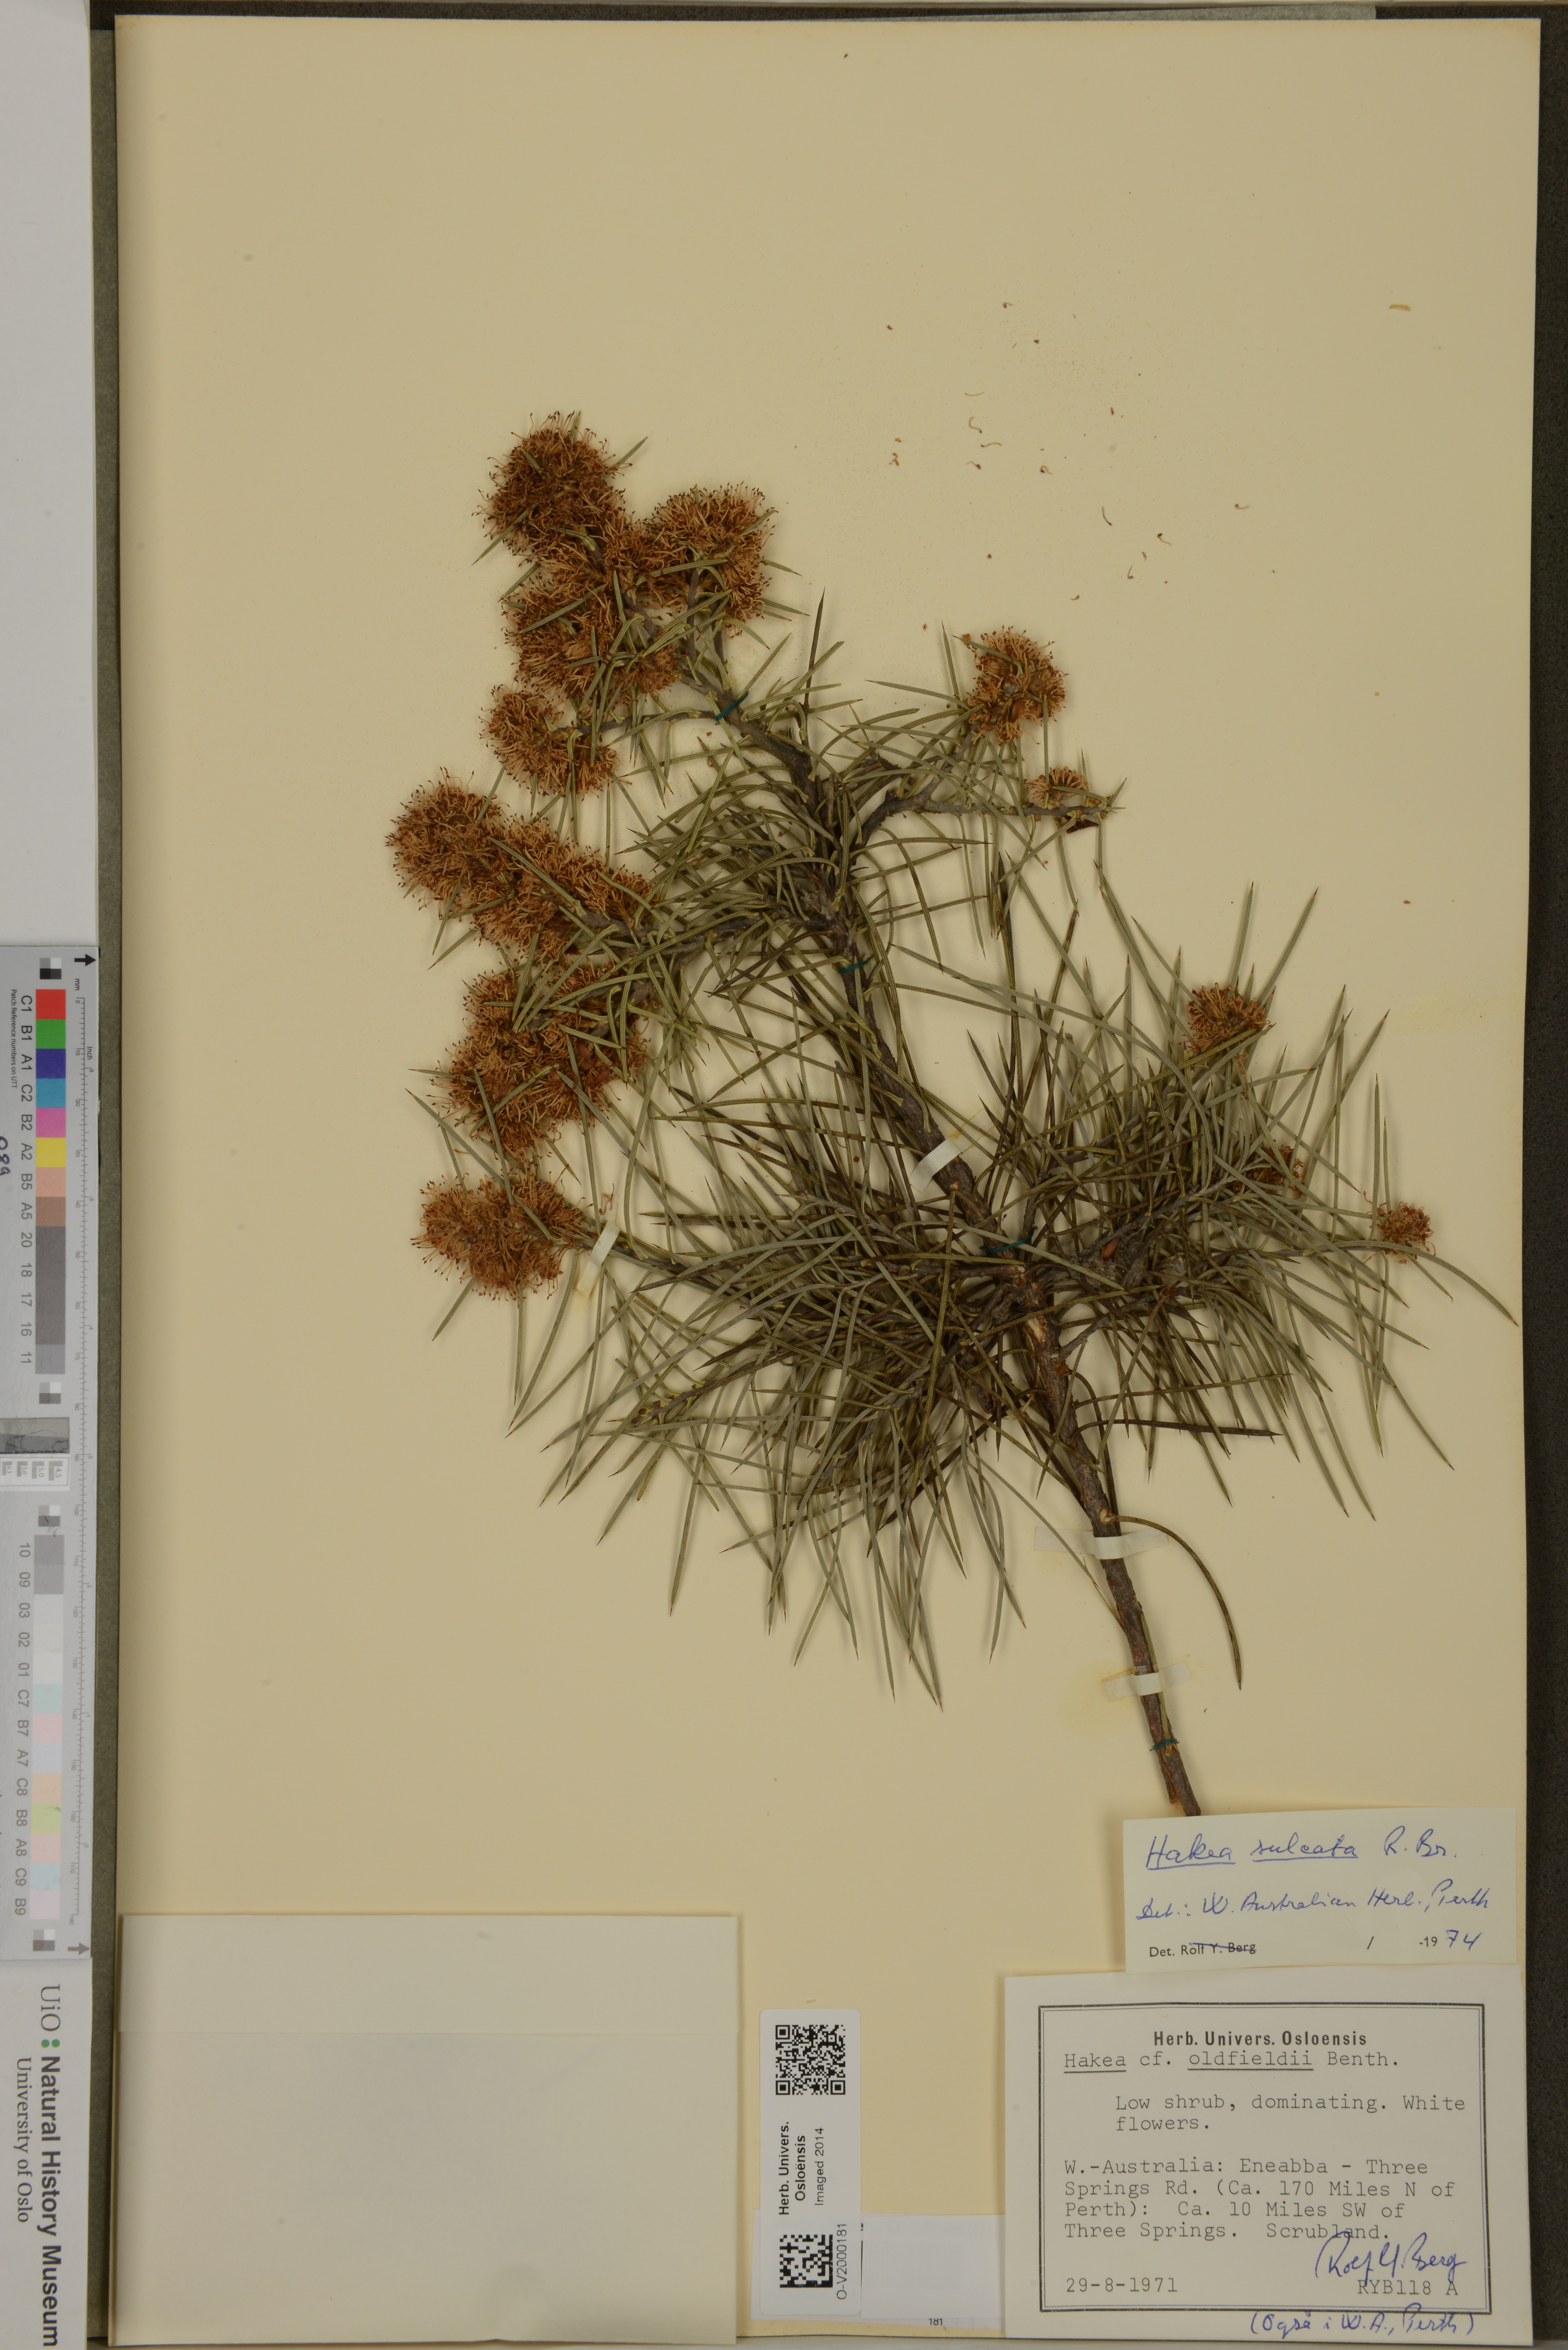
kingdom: Plantae
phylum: Tracheophyta
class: Magnoliopsida
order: Proteales
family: Proteaceae
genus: Hakea
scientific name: Hakea sulcata
